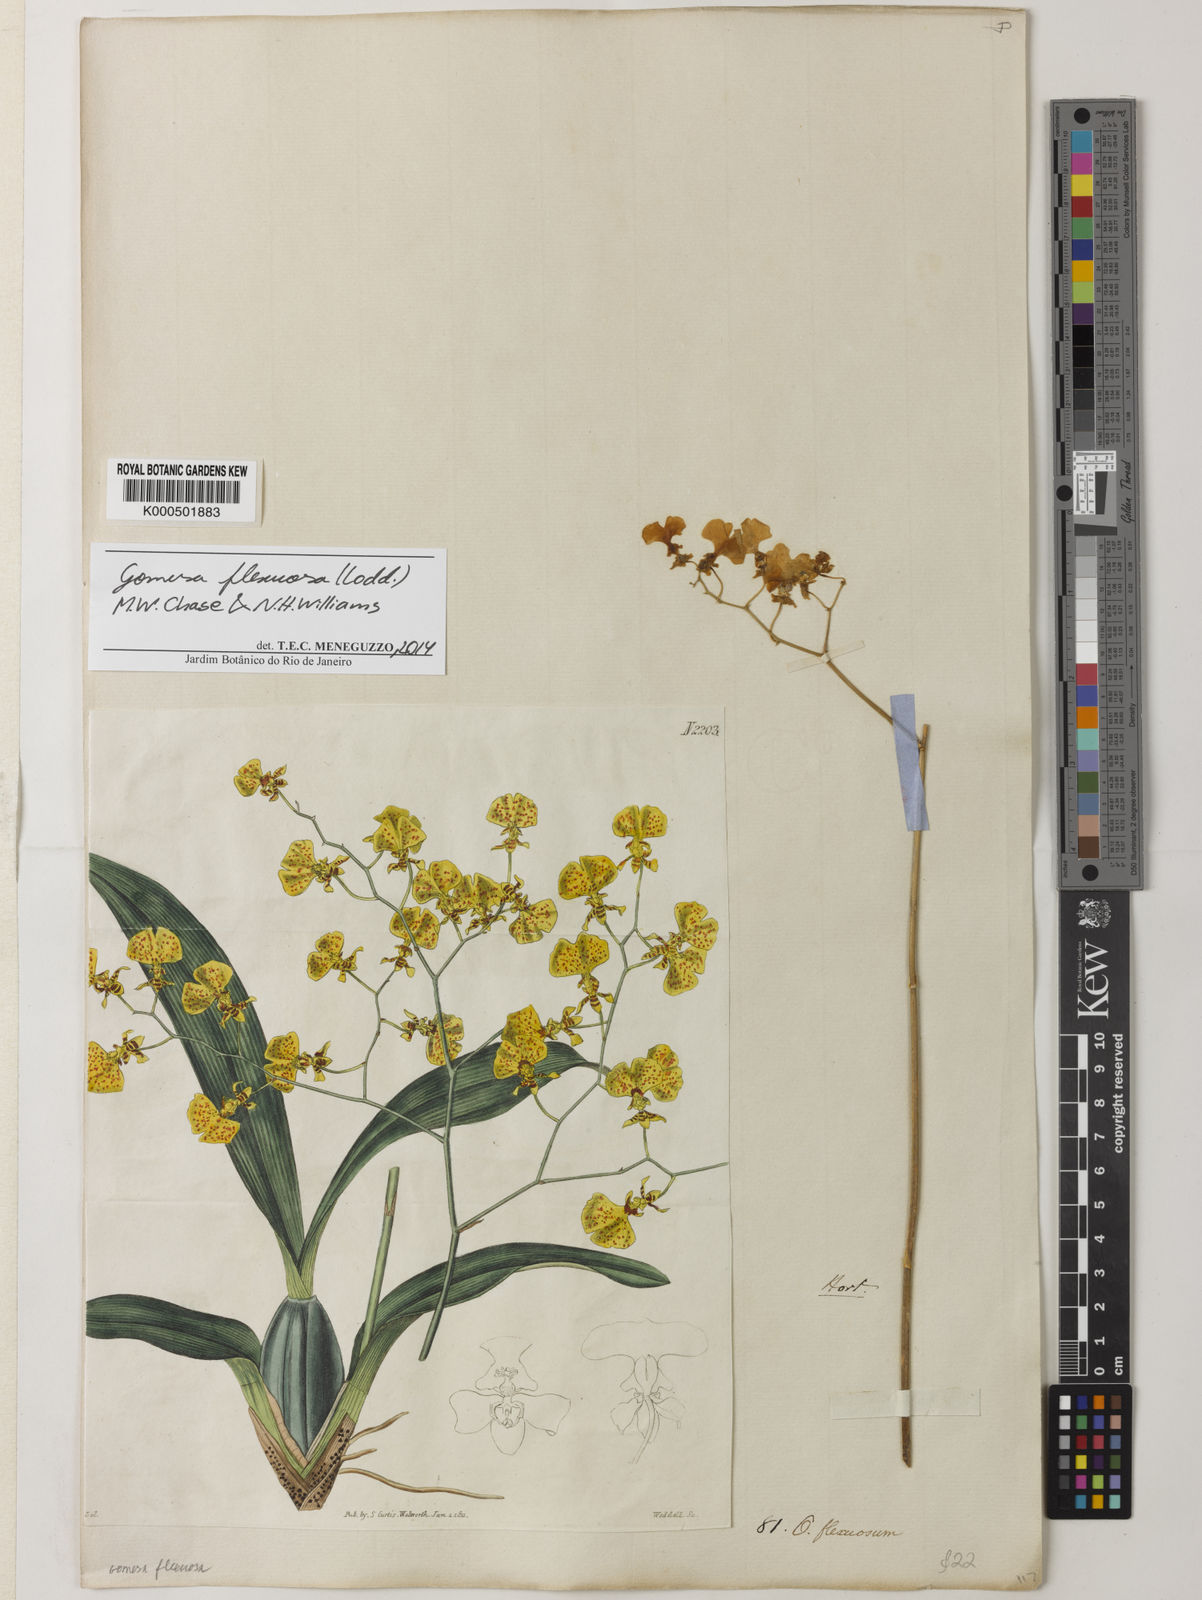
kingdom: Plantae
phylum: Tracheophyta
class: Liliopsida
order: Asparagales
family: Orchidaceae
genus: Gomesa
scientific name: Gomesa flexuosa
